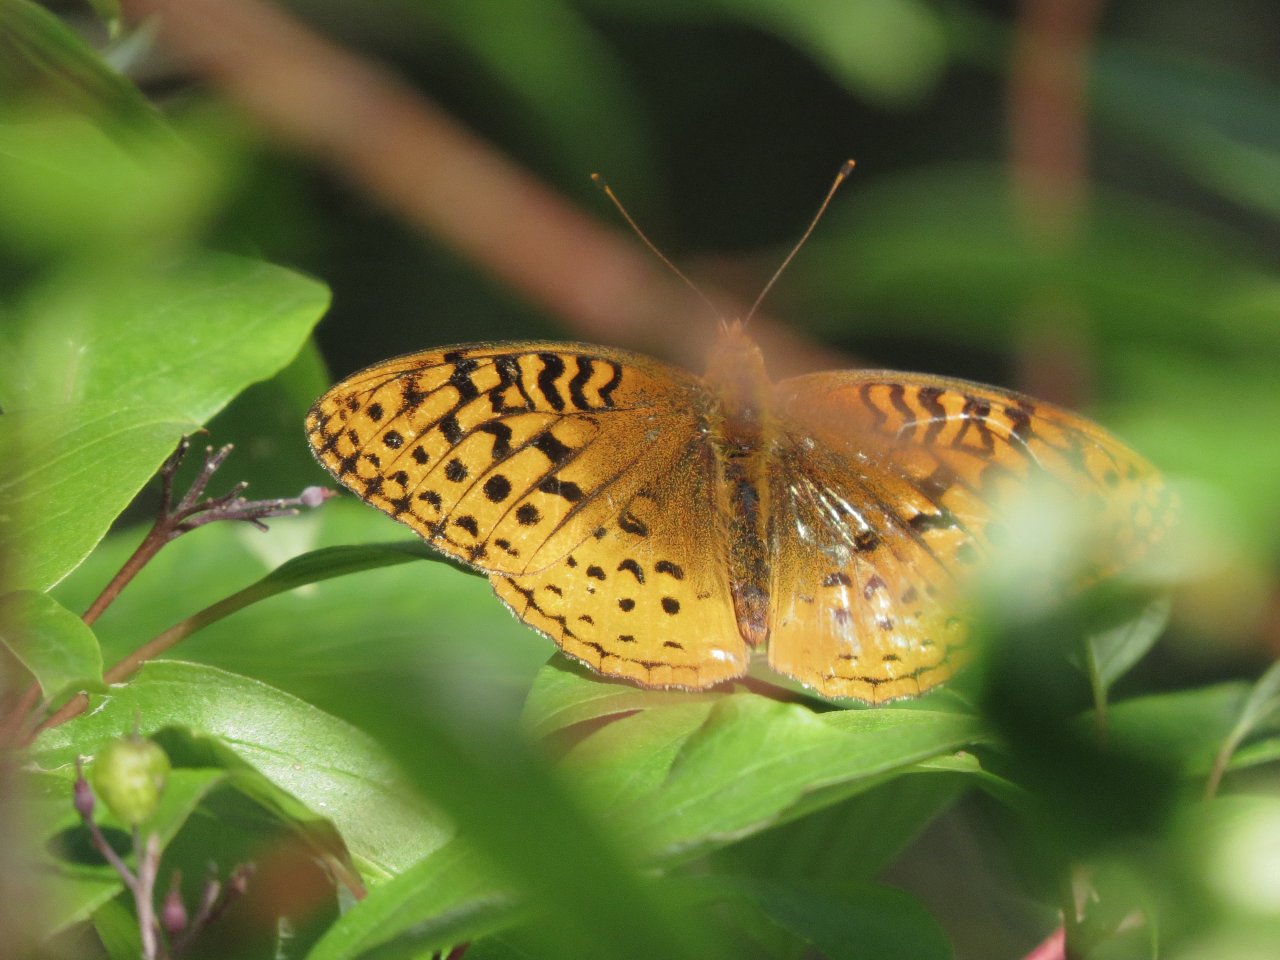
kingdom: Animalia
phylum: Arthropoda
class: Insecta
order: Lepidoptera
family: Nymphalidae
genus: Speyeria
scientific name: Speyeria cybele
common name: Great Spangled Fritillary
